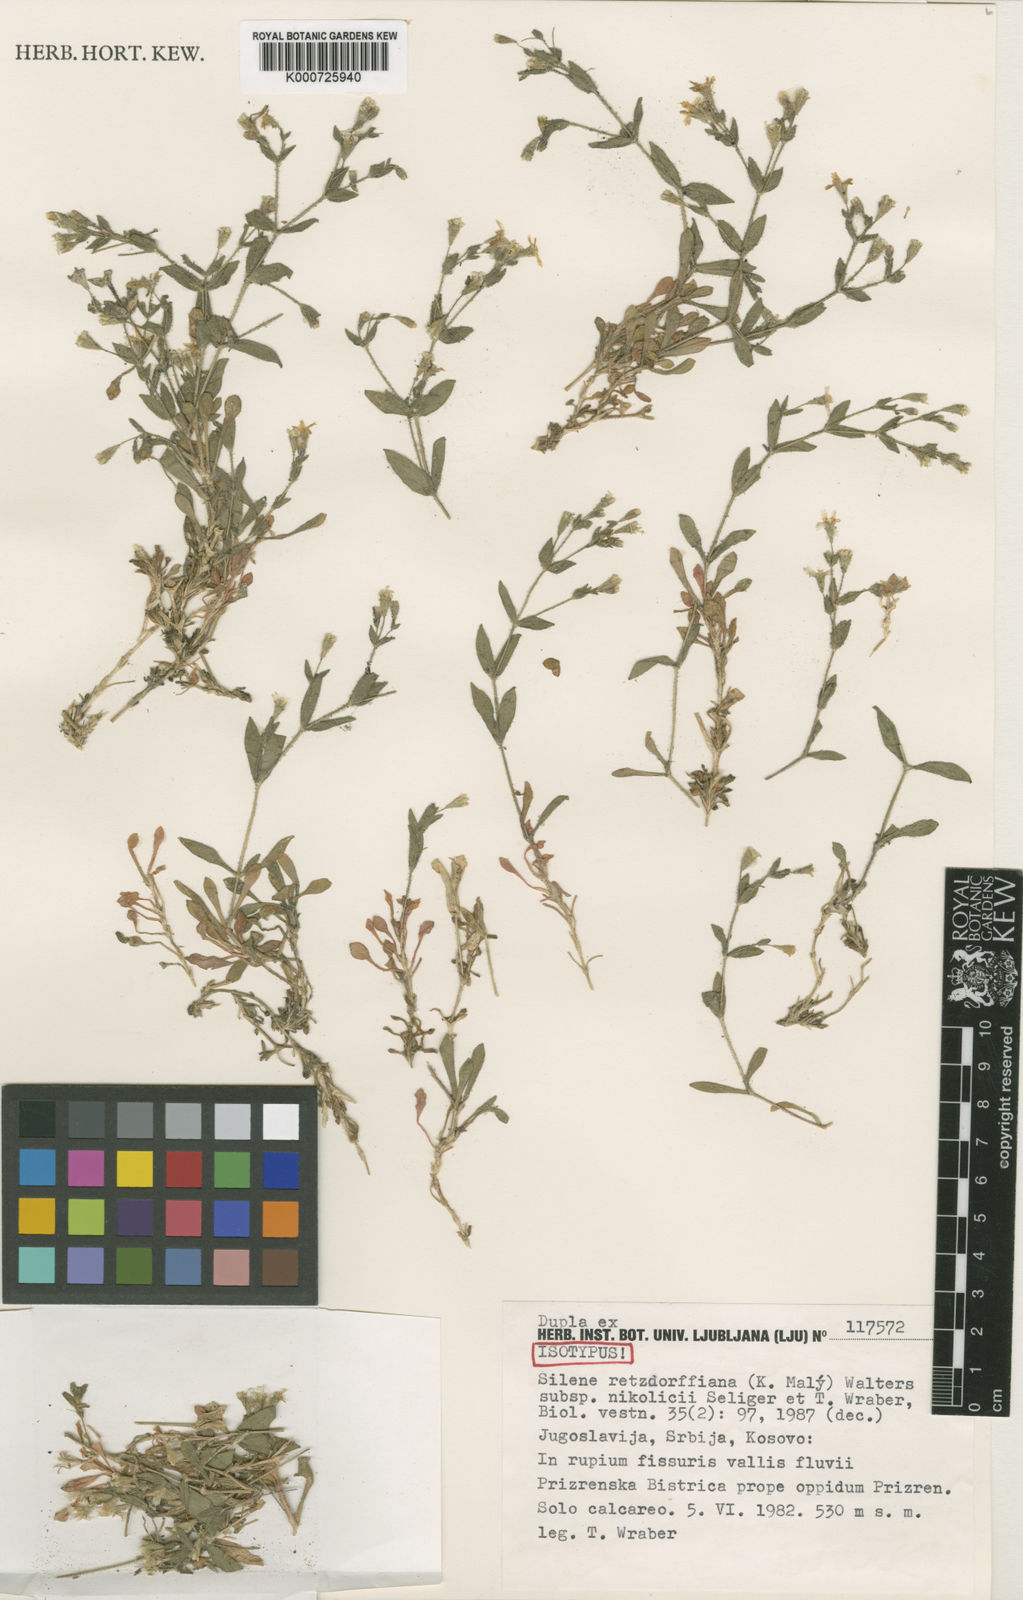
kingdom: Plantae
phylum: Tracheophyta
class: Magnoliopsida
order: Caryophyllales
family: Caryophyllaceae
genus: Heliosperma
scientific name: Heliosperma pusillum
